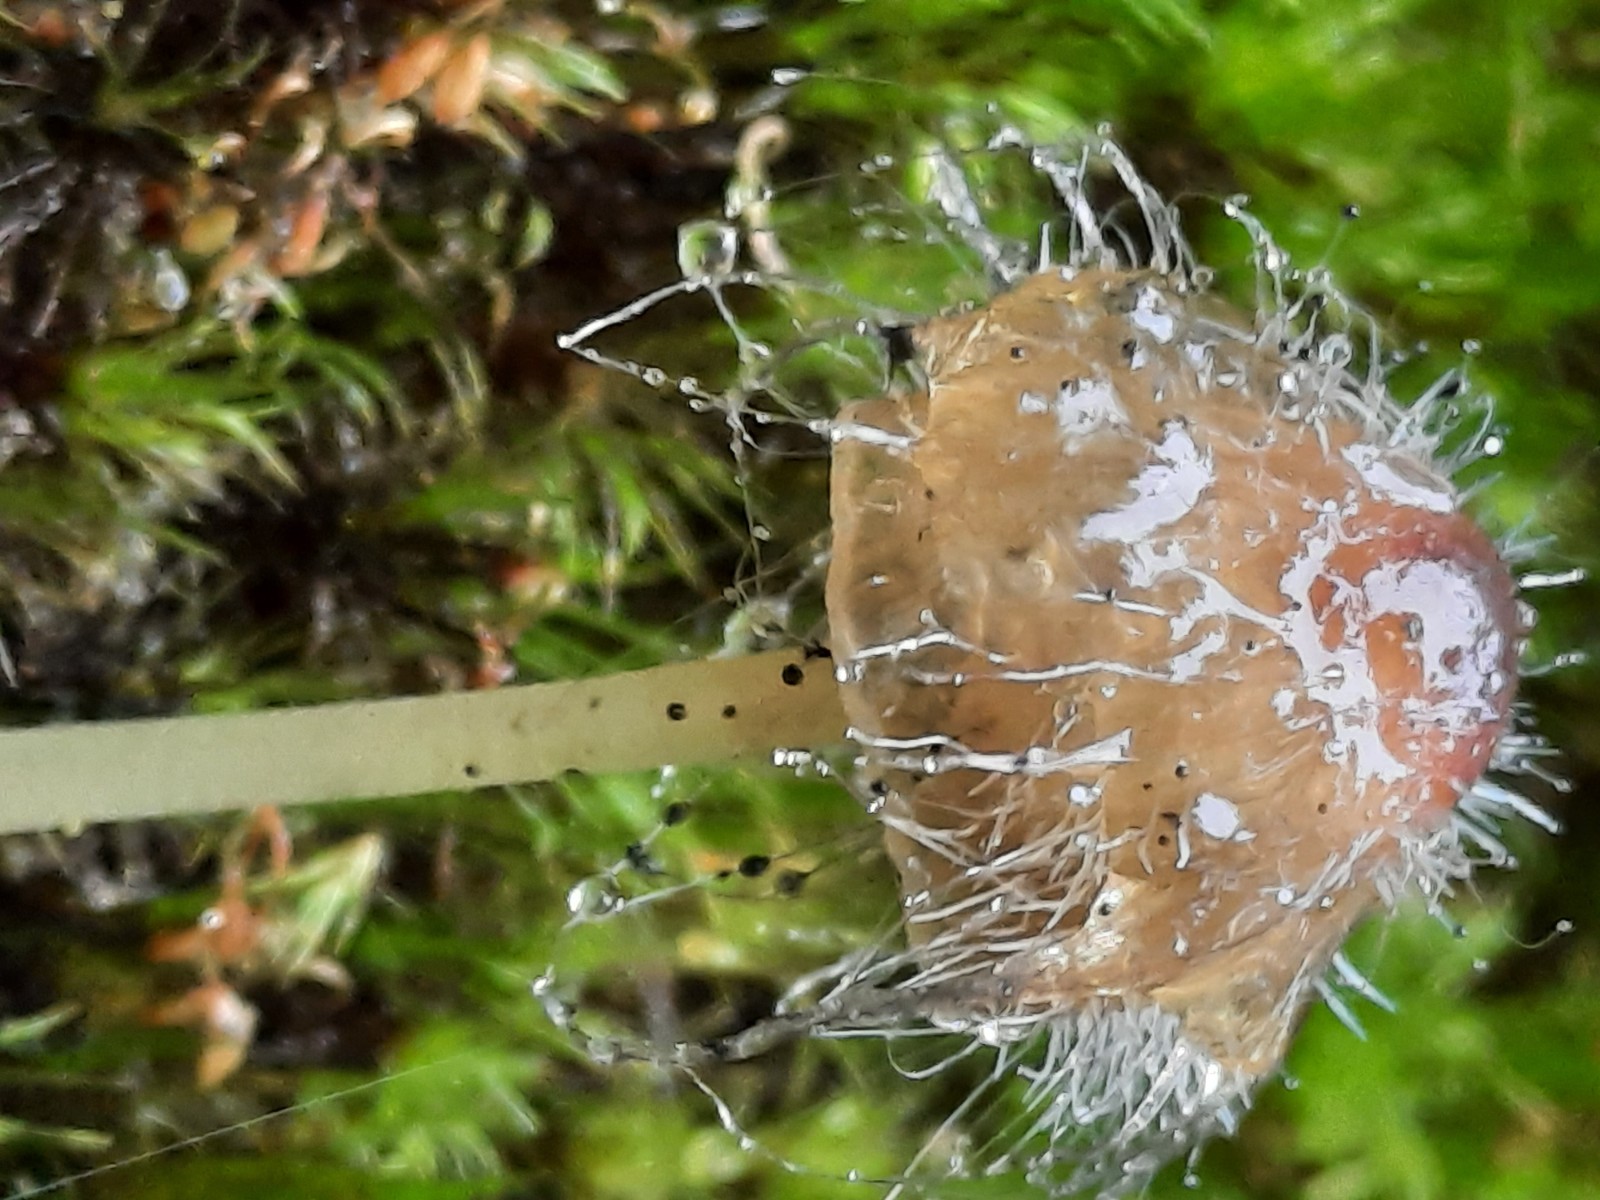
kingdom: Fungi
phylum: Mucoromycota
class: Mucoromycetes
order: Mucorales
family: Phycomycetaceae
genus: Spinellus
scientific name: Spinellus fusiger
